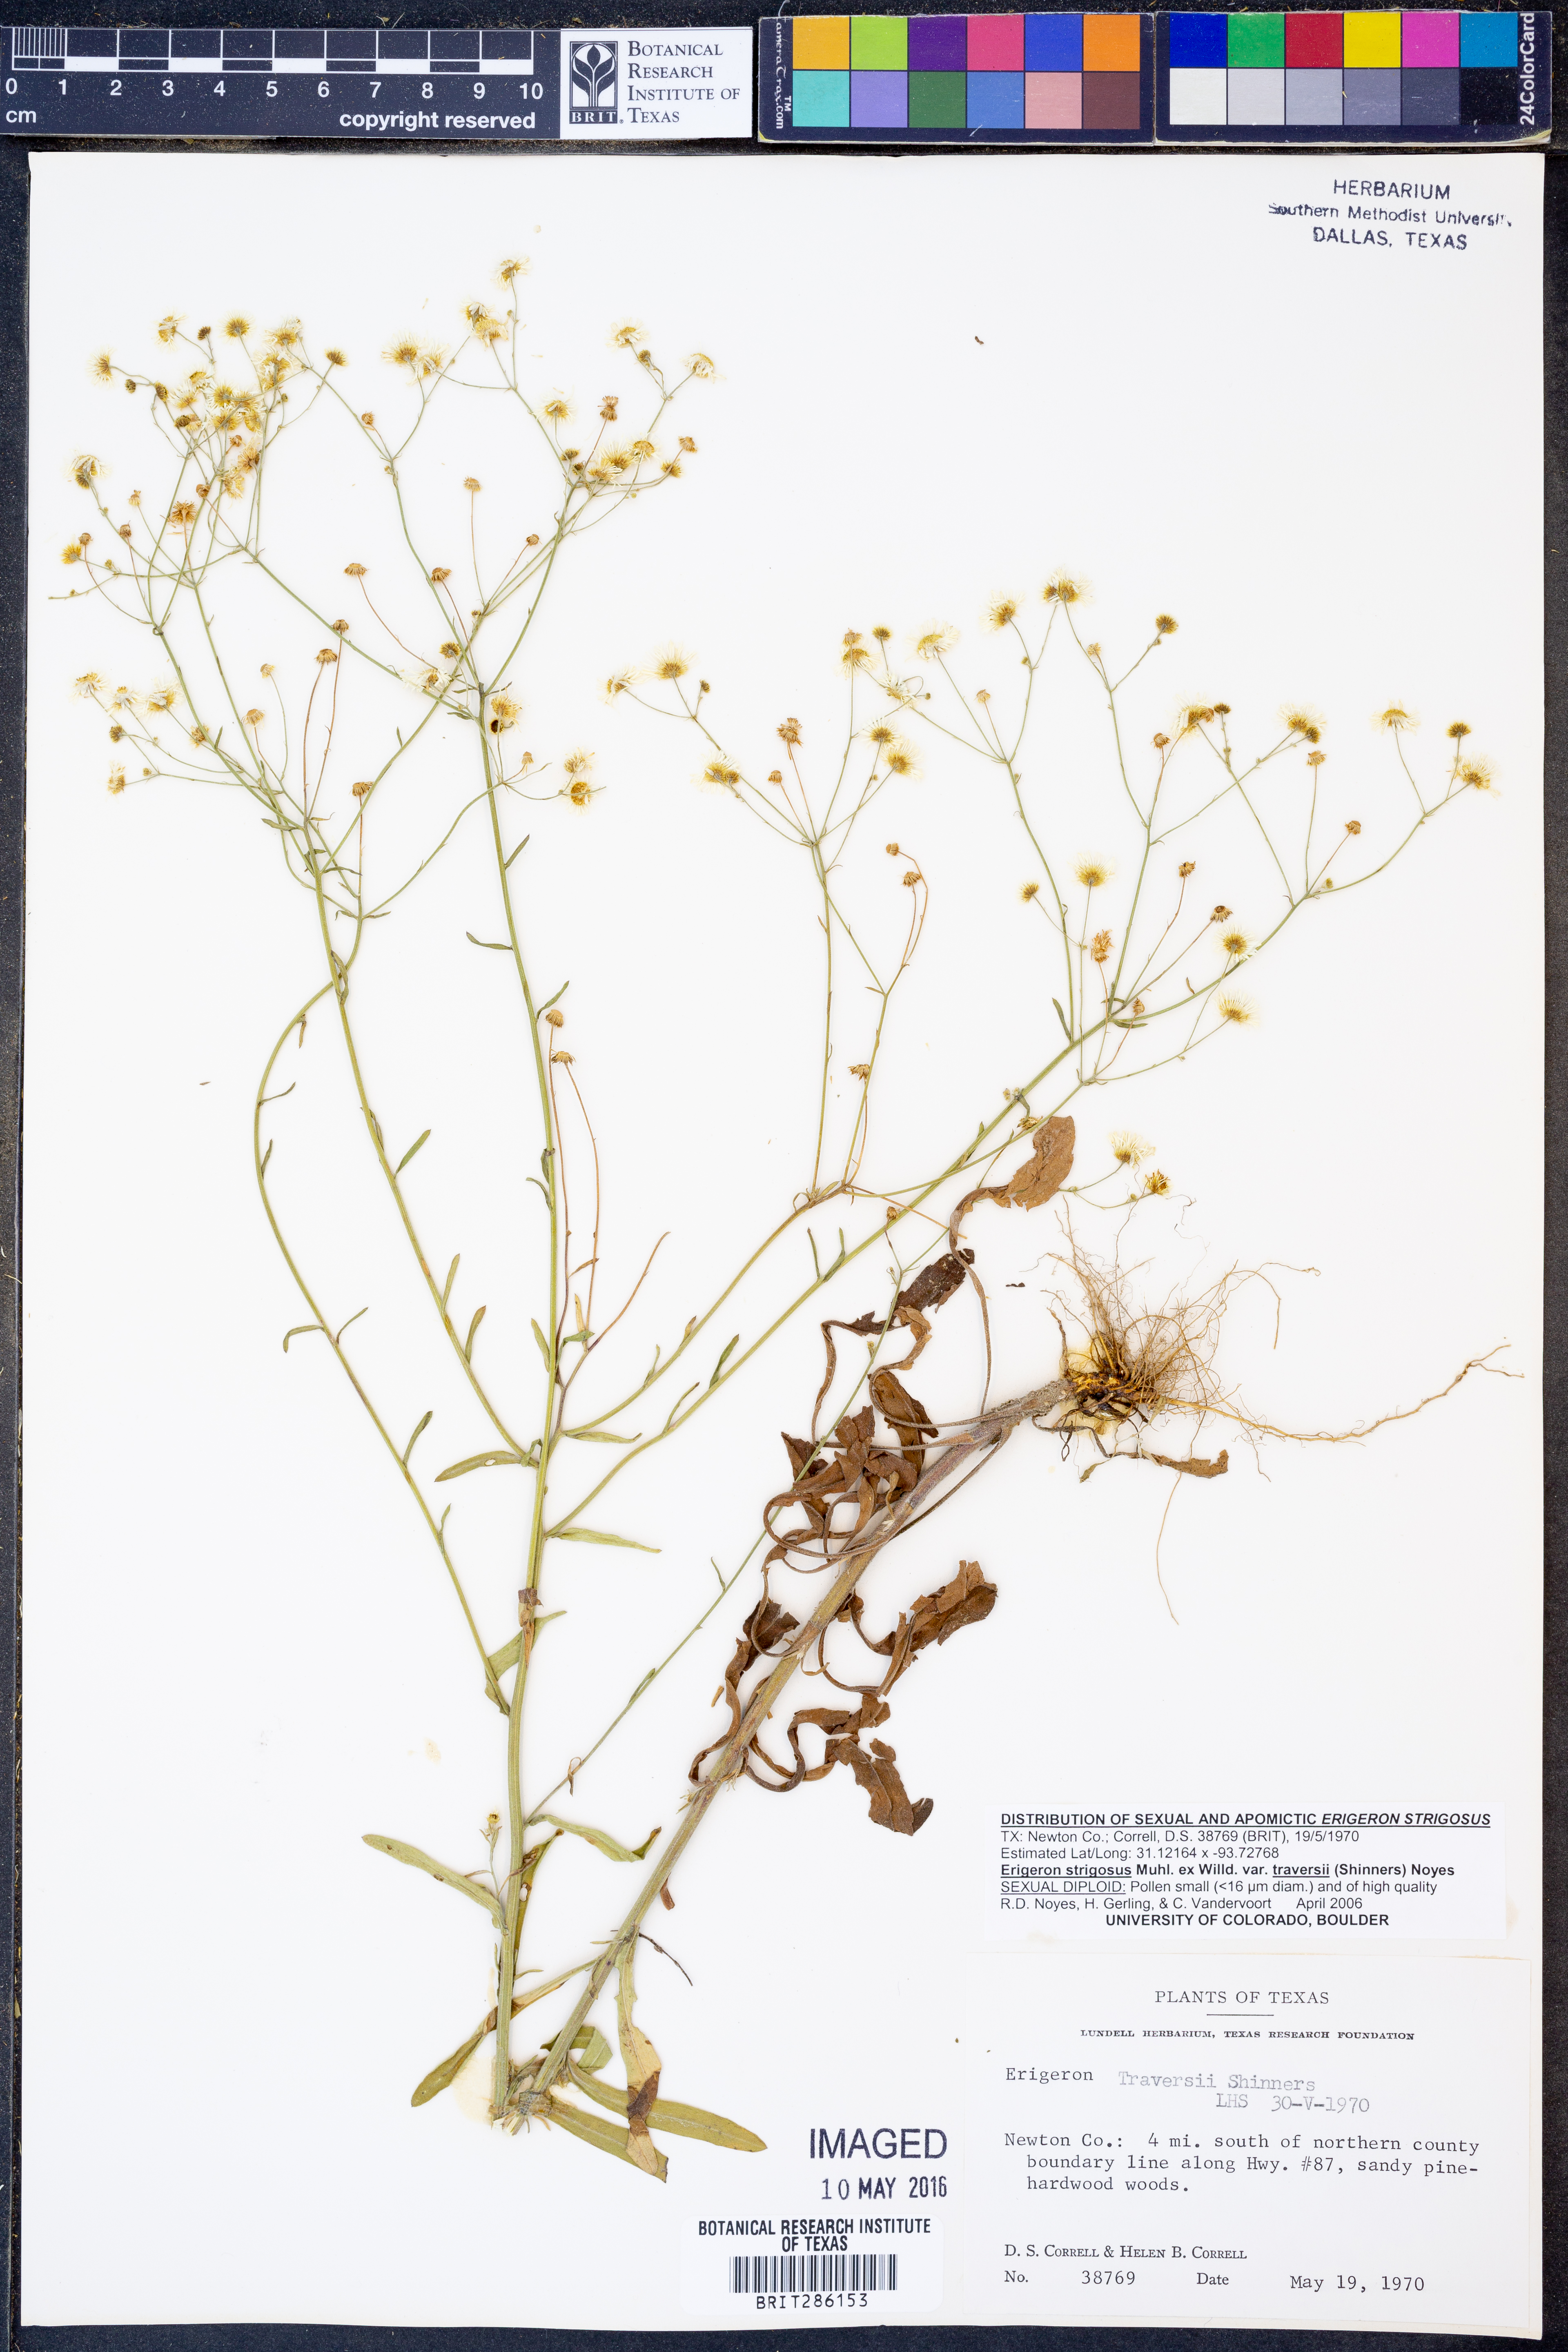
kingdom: Plantae
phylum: Tracheophyta
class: Magnoliopsida
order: Asterales
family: Asteraceae
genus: Erigeron
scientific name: Erigeron annuus
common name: Tall fleabane
